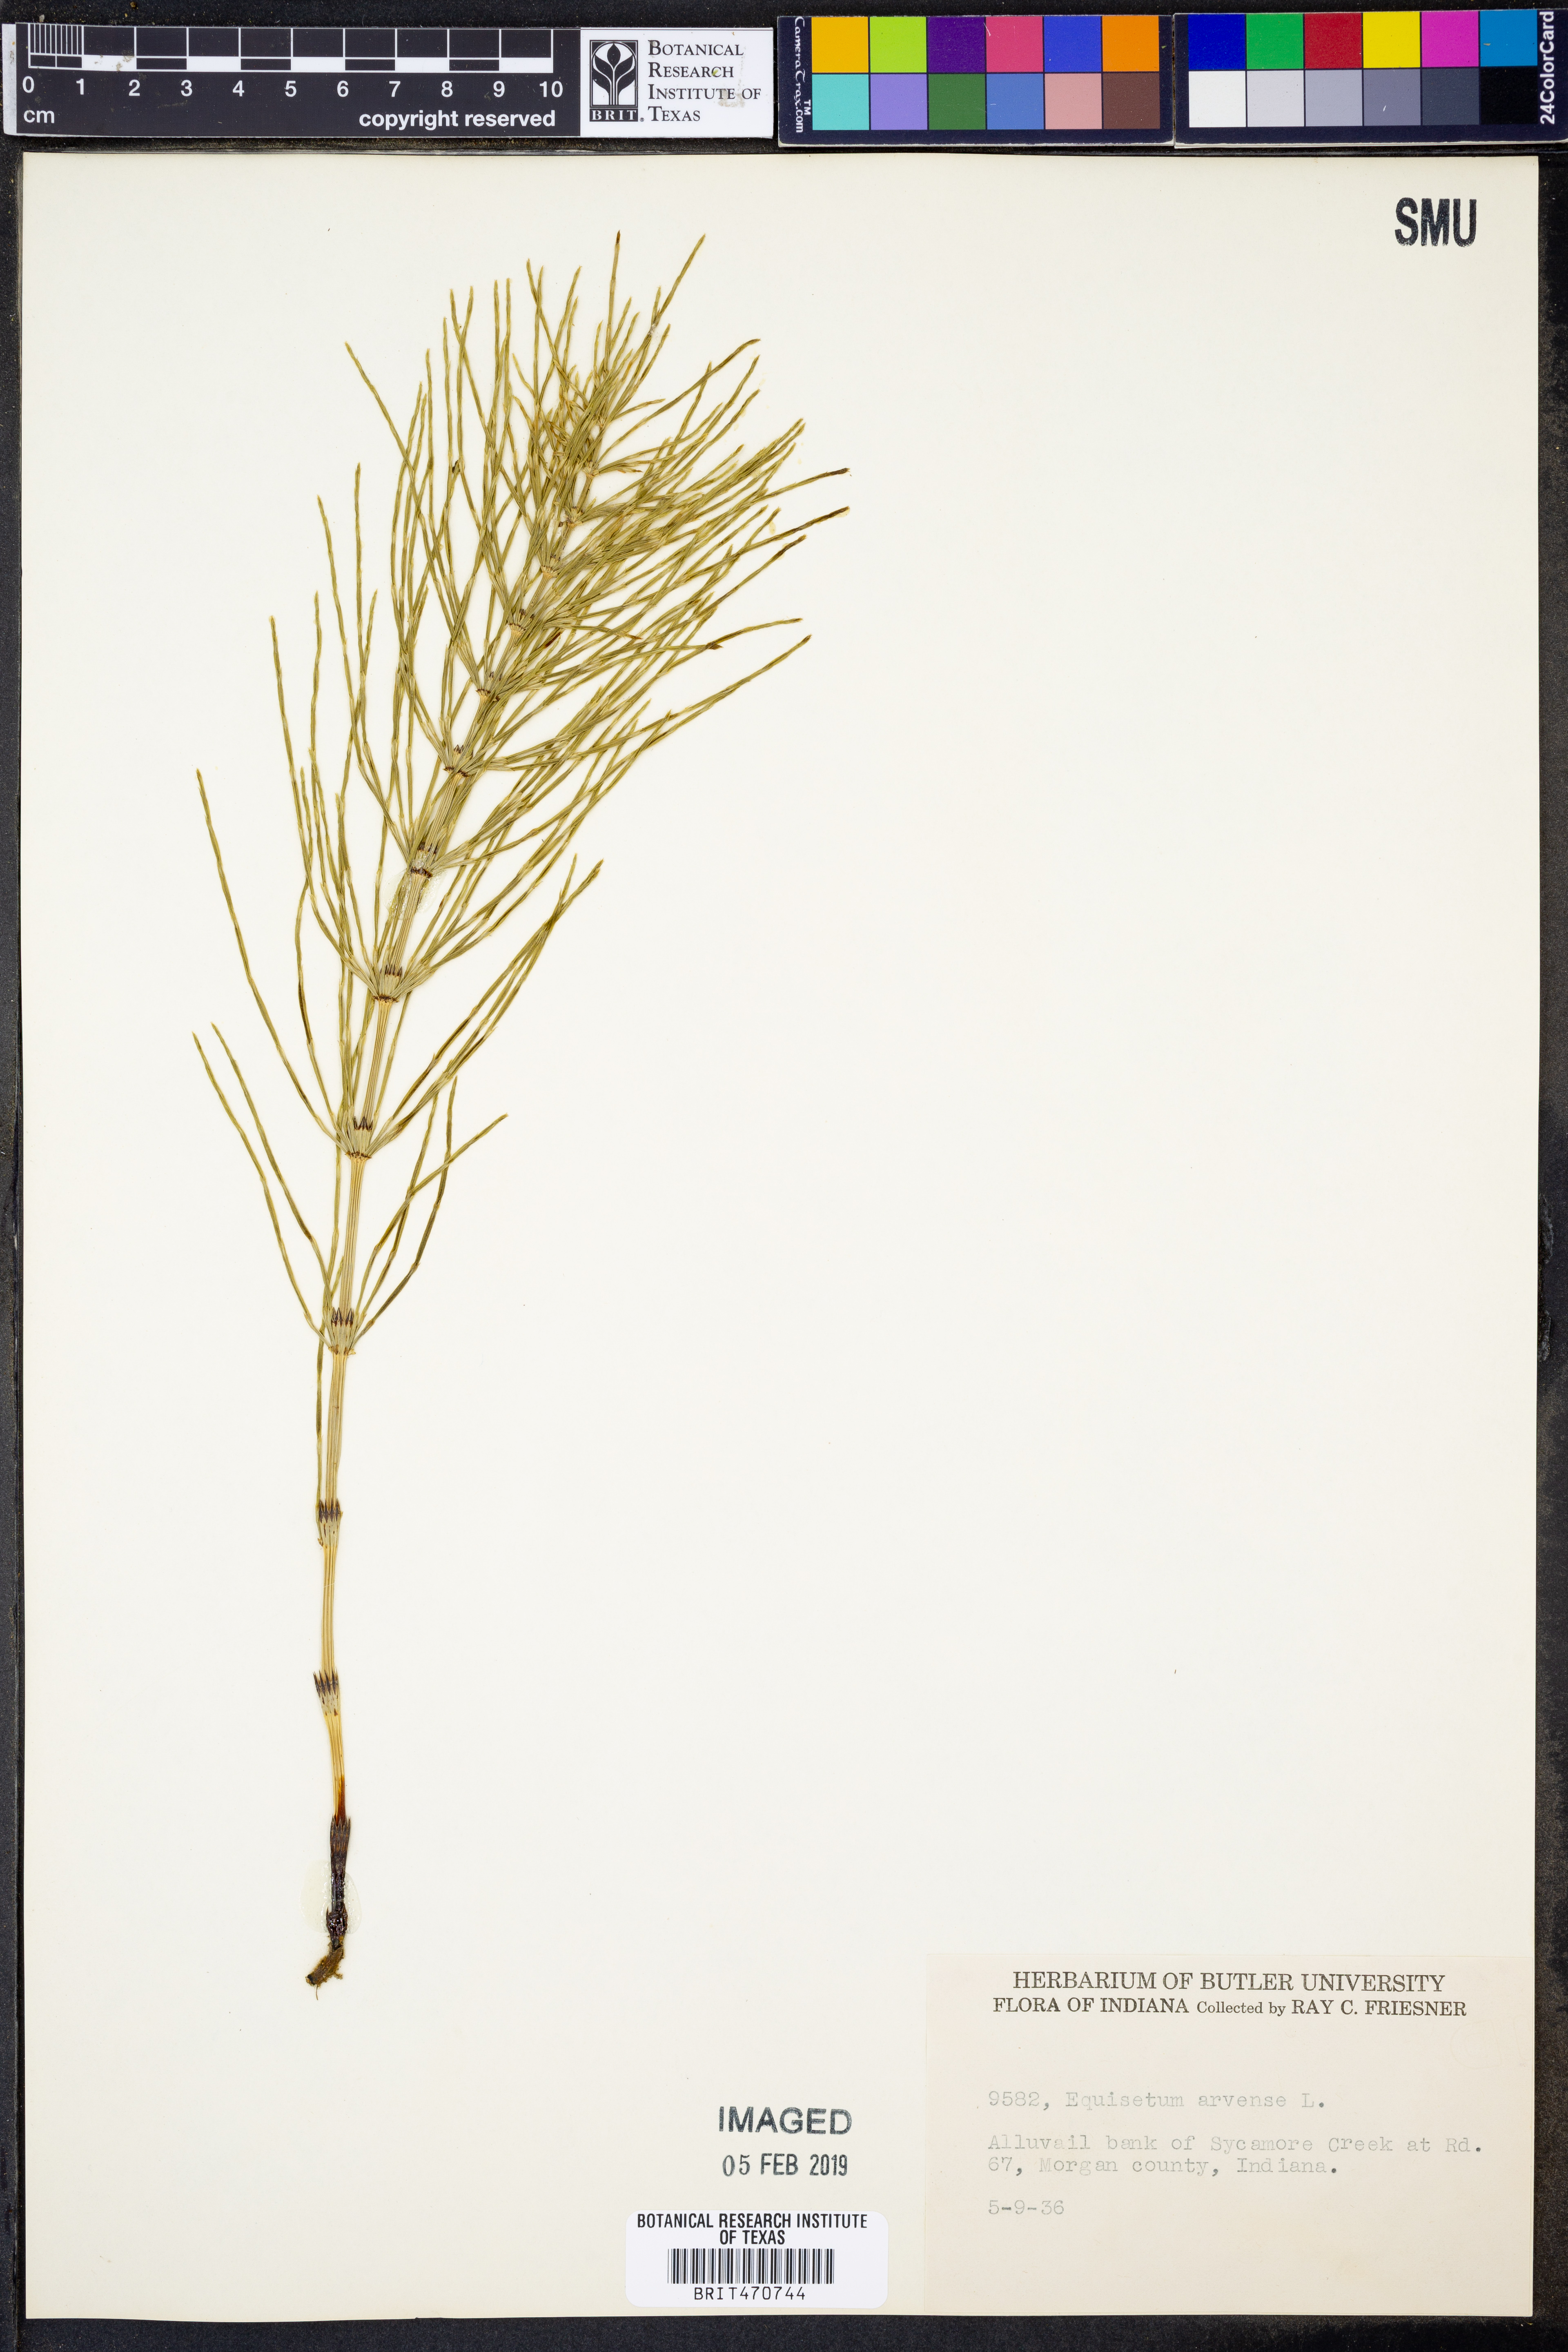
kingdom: Plantae
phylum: Tracheophyta
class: Polypodiopsida
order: Equisetales
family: Equisetaceae
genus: Equisetum
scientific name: Equisetum arvense
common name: Field horsetail
